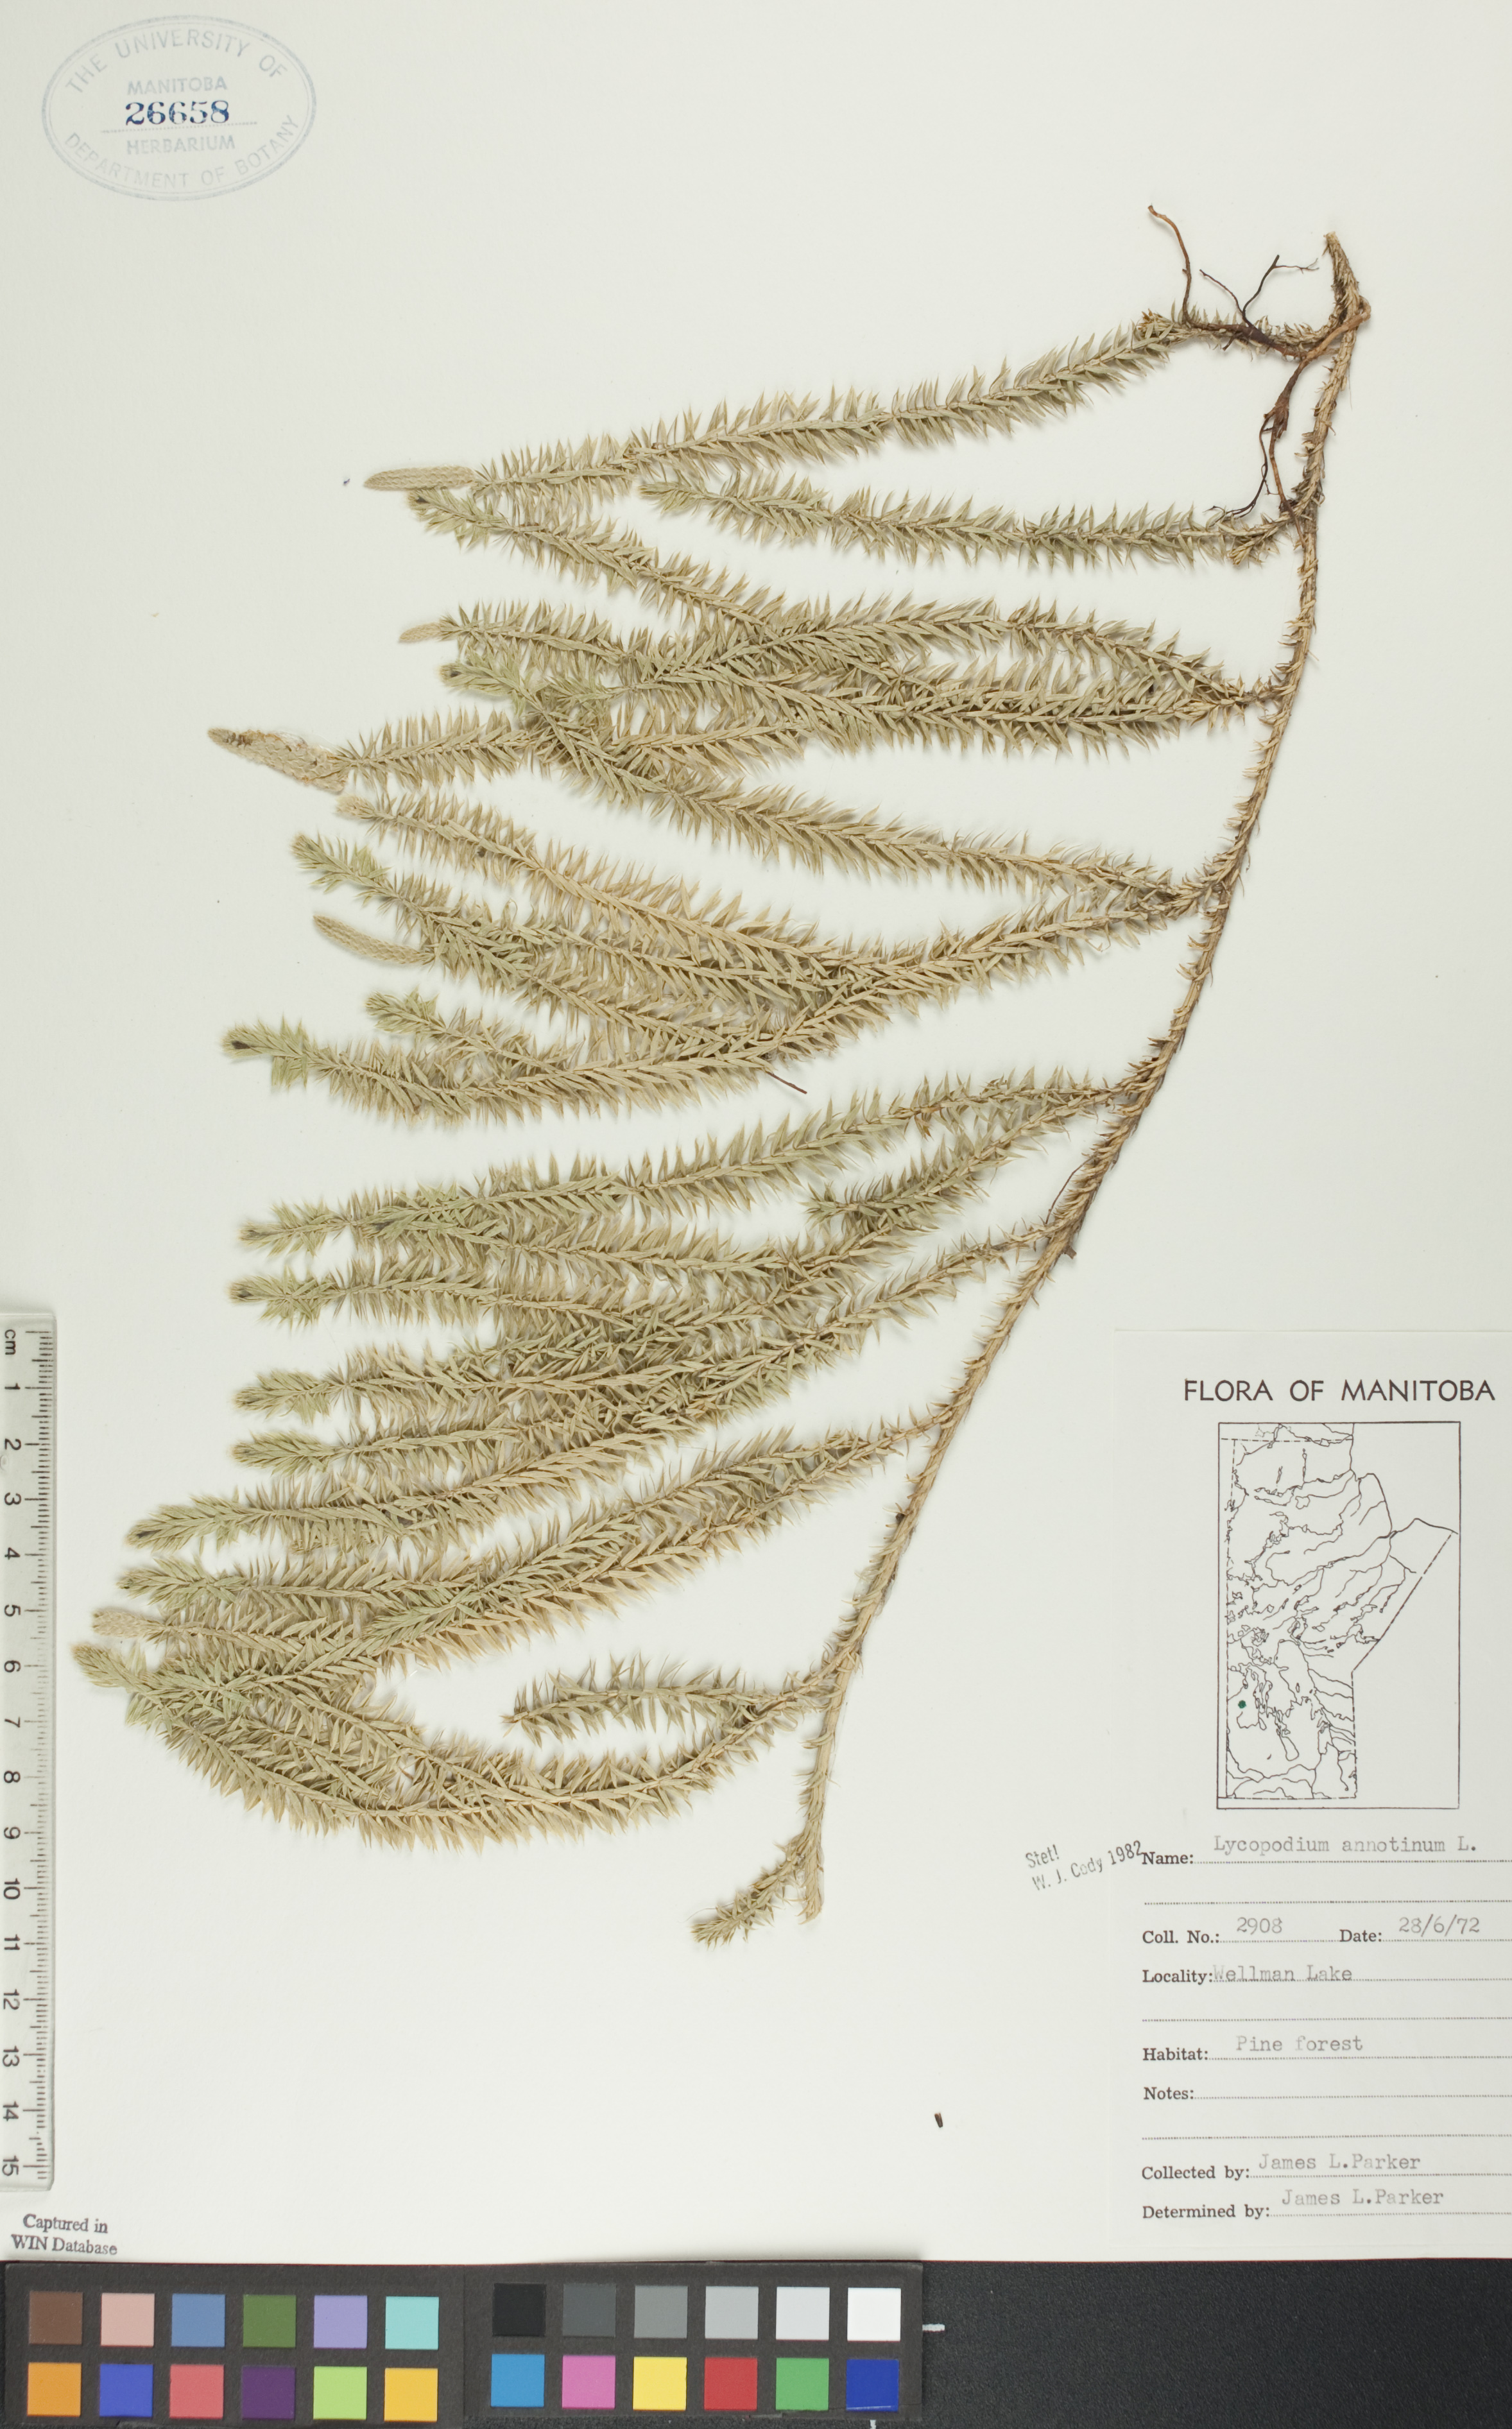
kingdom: Plantae
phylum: Tracheophyta
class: Lycopodiopsida
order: Lycopodiales
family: Lycopodiaceae
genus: Spinulum
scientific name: Spinulum annotinum
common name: Interrupted club-moss
